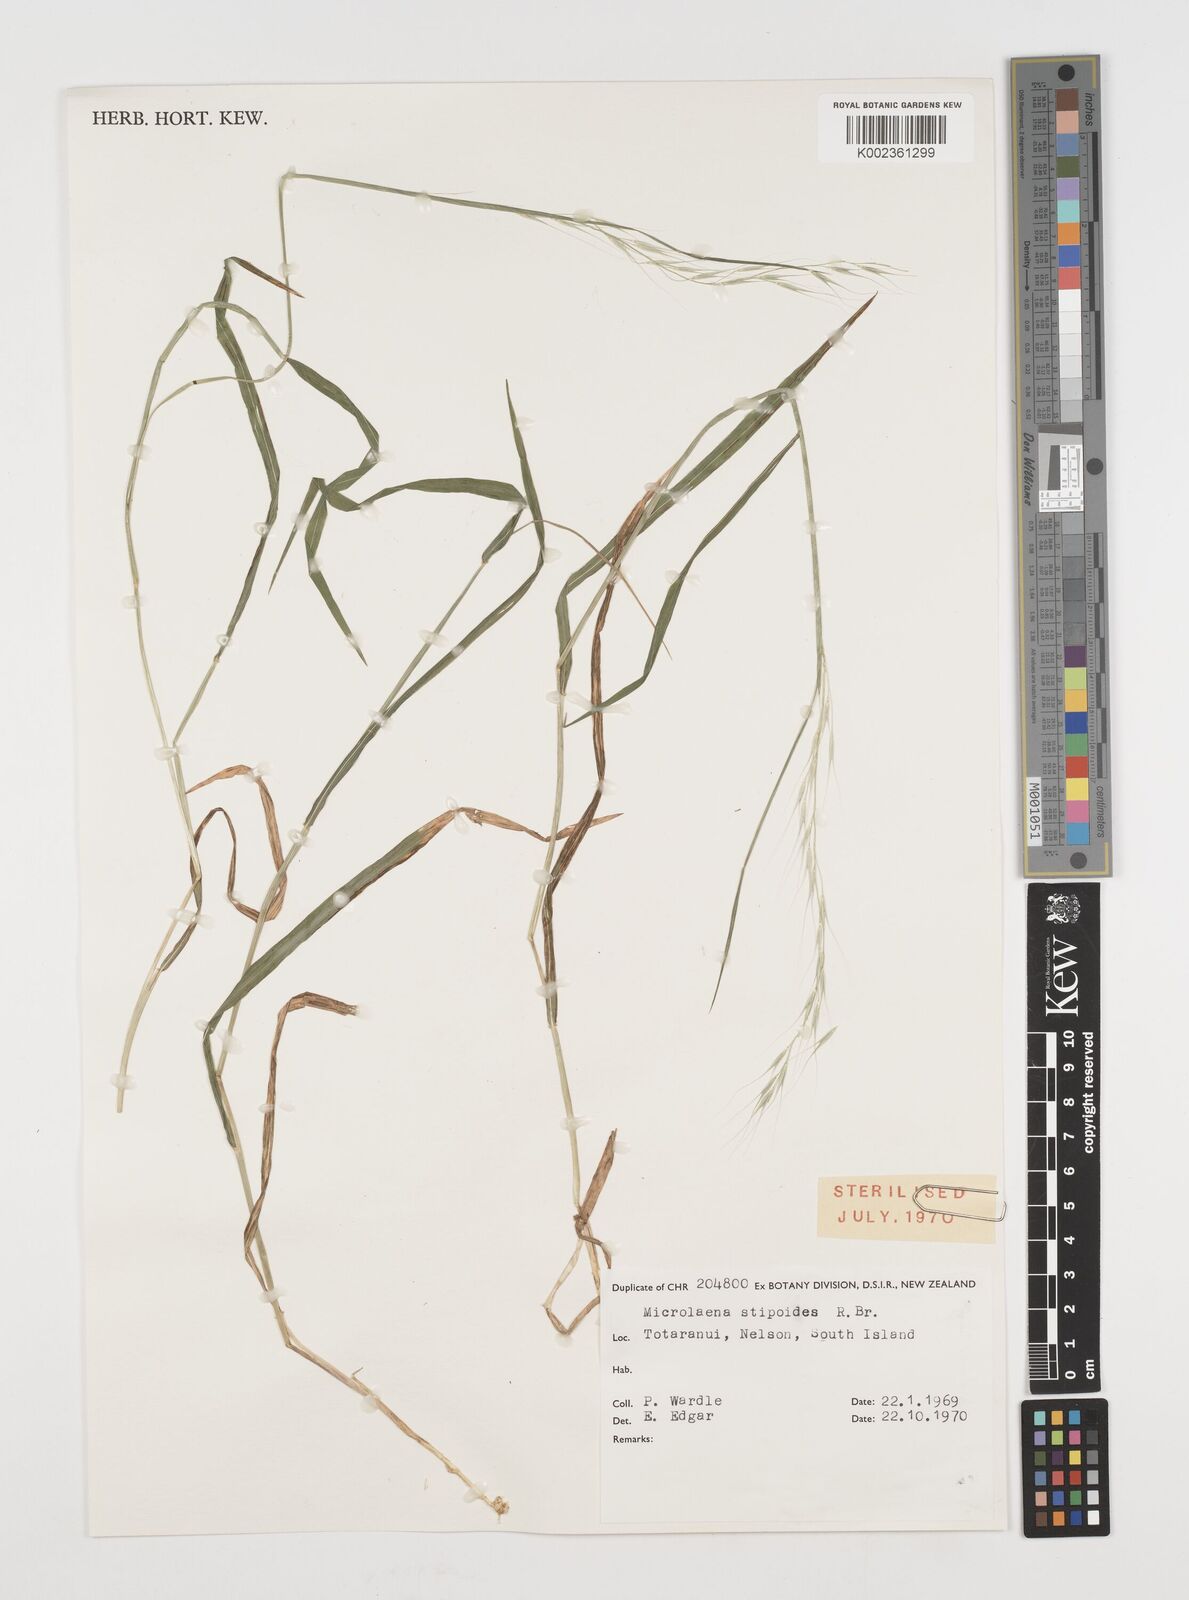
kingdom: Plantae
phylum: Tracheophyta
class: Liliopsida
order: Poales
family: Poaceae
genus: Microlaena
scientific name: Microlaena stipoides
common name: Meadow ricegrass
